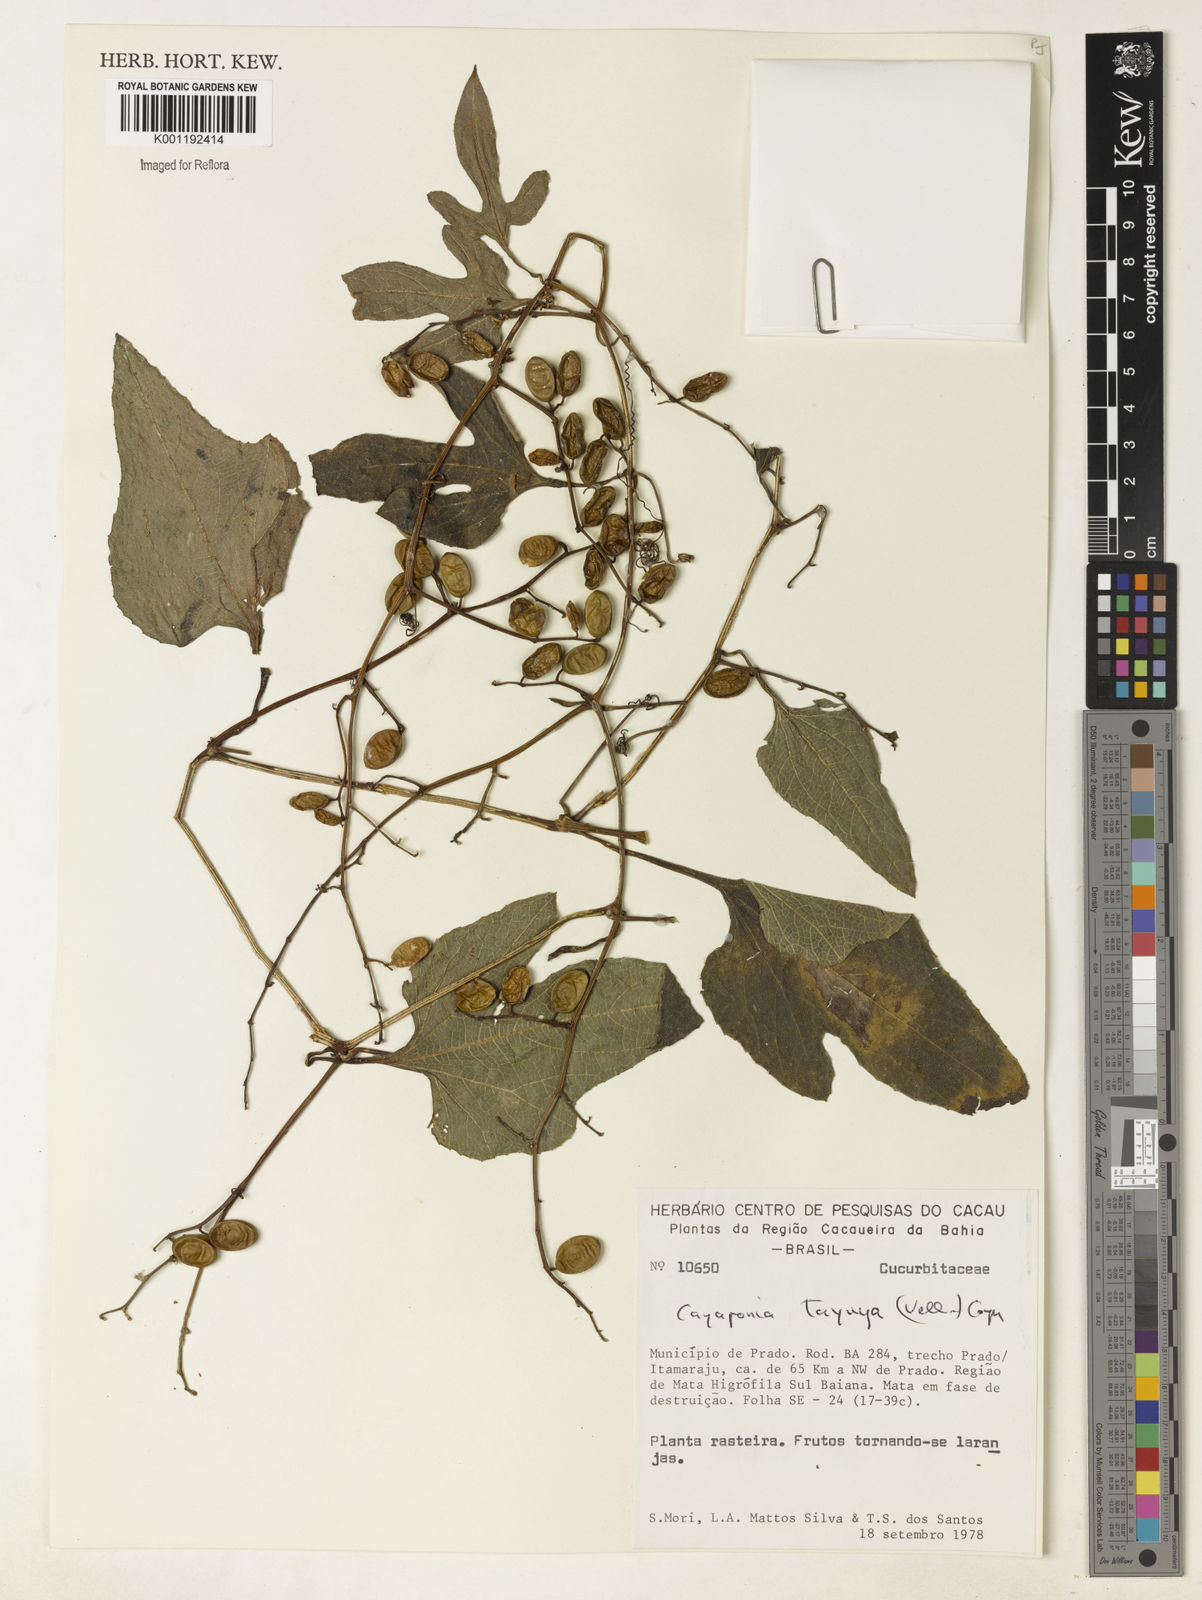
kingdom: Plantae
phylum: Tracheophyta
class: Magnoliopsida
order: Cucurbitales
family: Cucurbitaceae
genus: Cayaponia
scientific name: Cayaponia tayuya
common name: Tayuya
